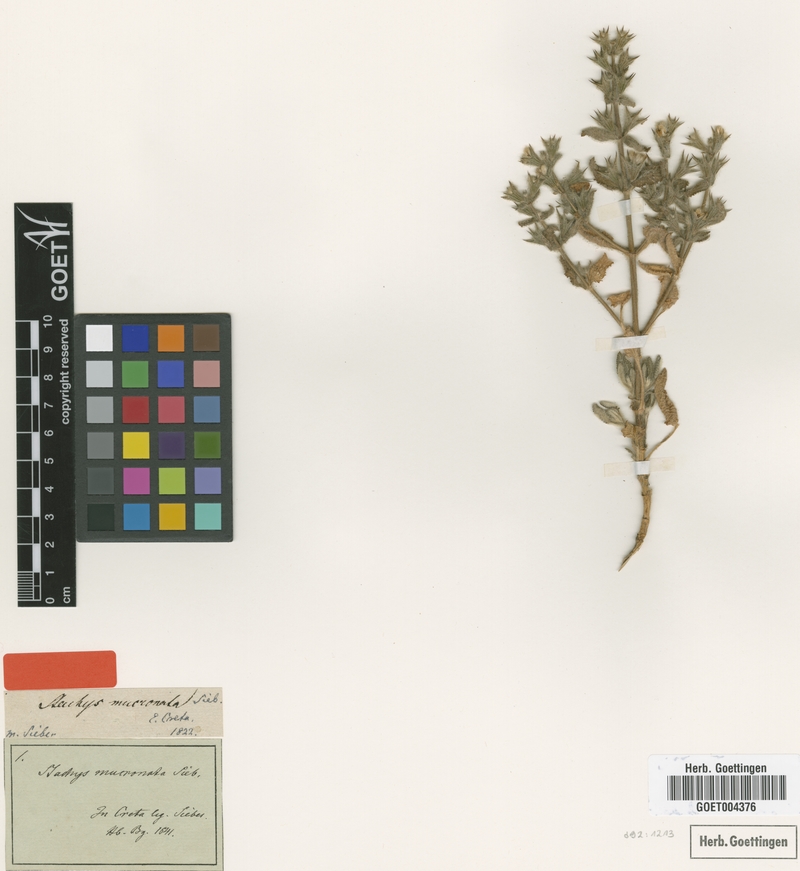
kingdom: Plantae
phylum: Tracheophyta
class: Magnoliopsida
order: Lamiales
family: Lamiaceae
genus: Stachys
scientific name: Stachys mucronata
